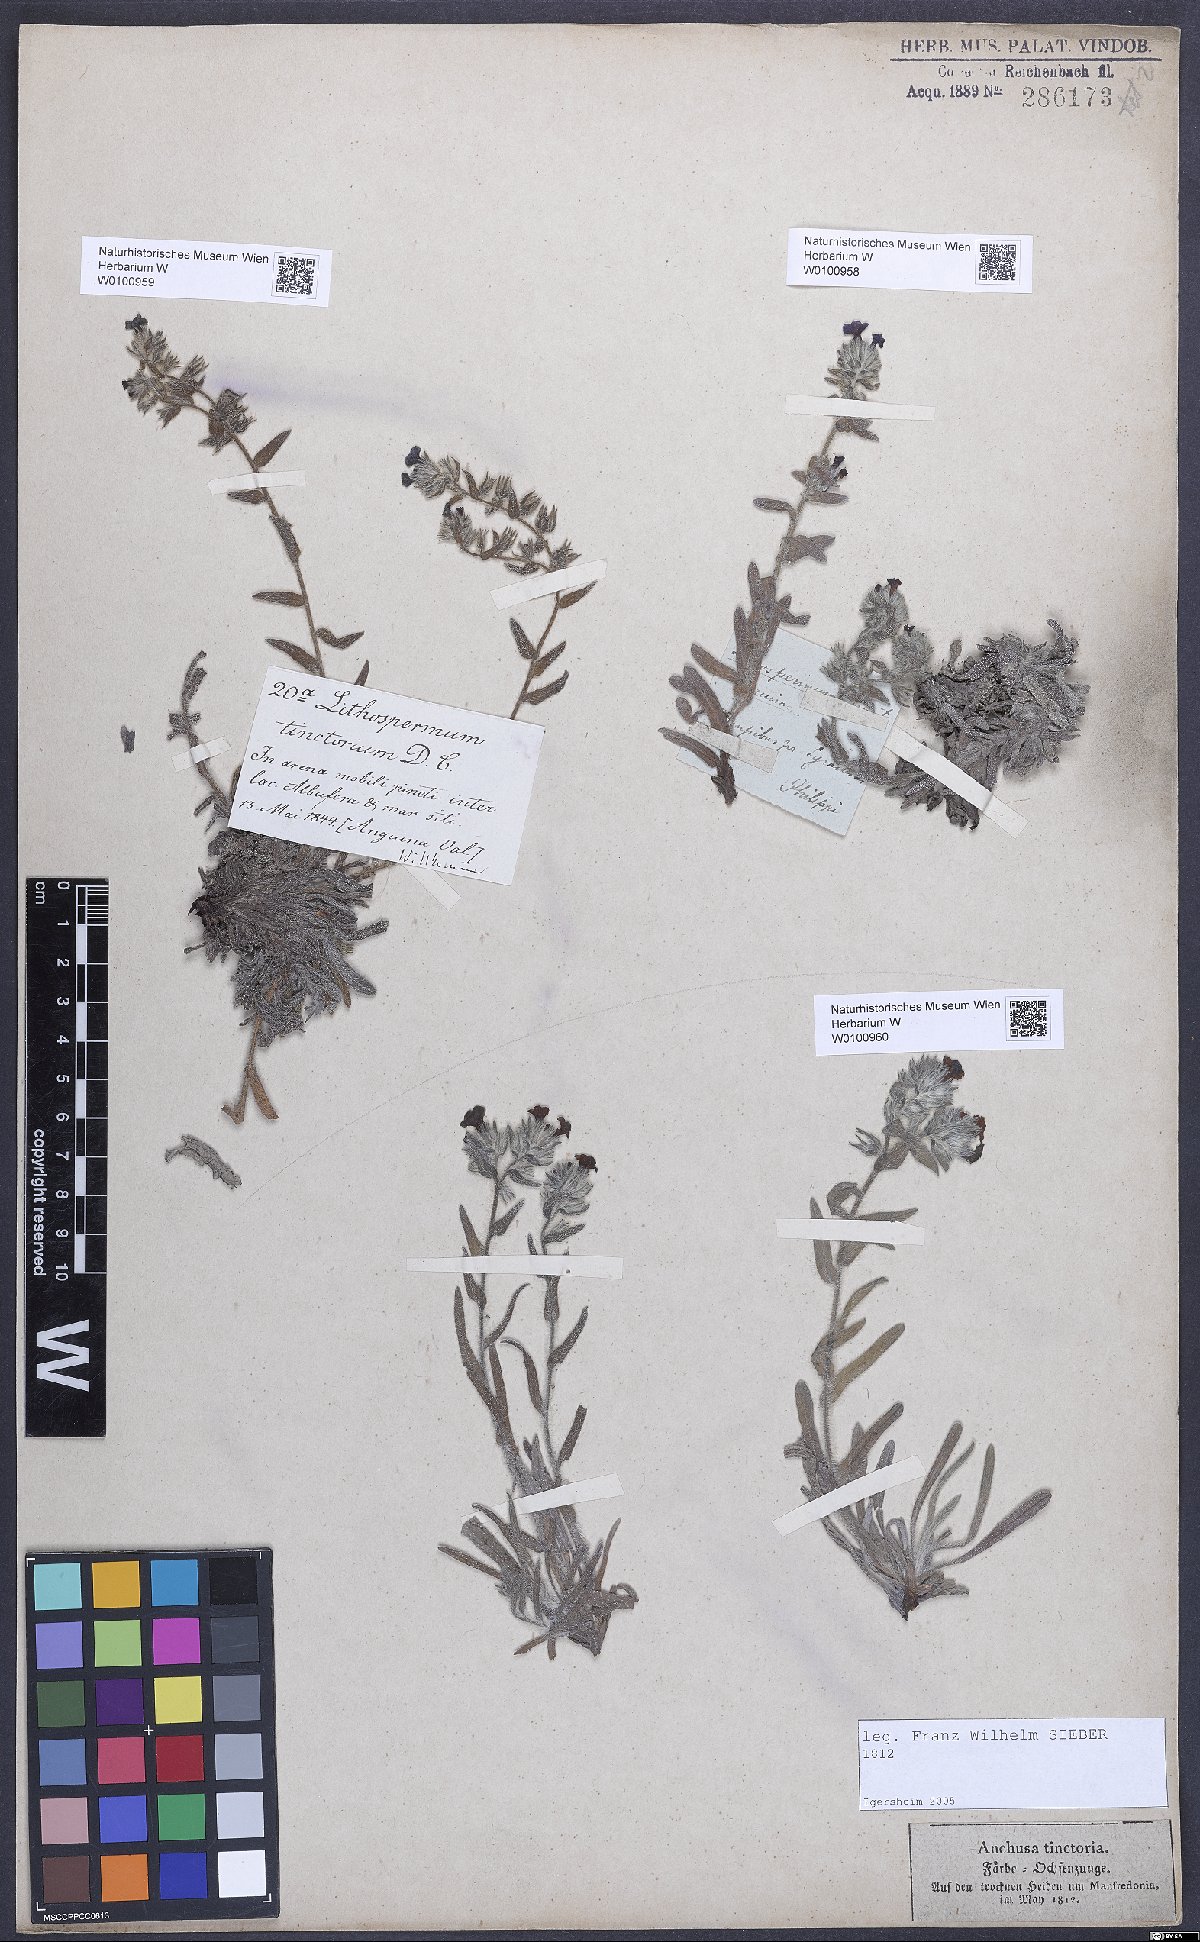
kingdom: Plantae
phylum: Tracheophyta
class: Magnoliopsida
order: Boraginales
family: Boraginaceae
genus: Alkanna
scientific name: Alkanna tinctoria
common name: Dyer's-alkanet
